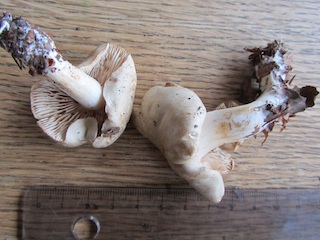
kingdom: Fungi
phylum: Basidiomycota
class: Agaricomycetes
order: Agaricales
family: Tricholomataceae
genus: Tricholoma
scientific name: Tricholoma lascivum
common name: stinkende ridderhat
